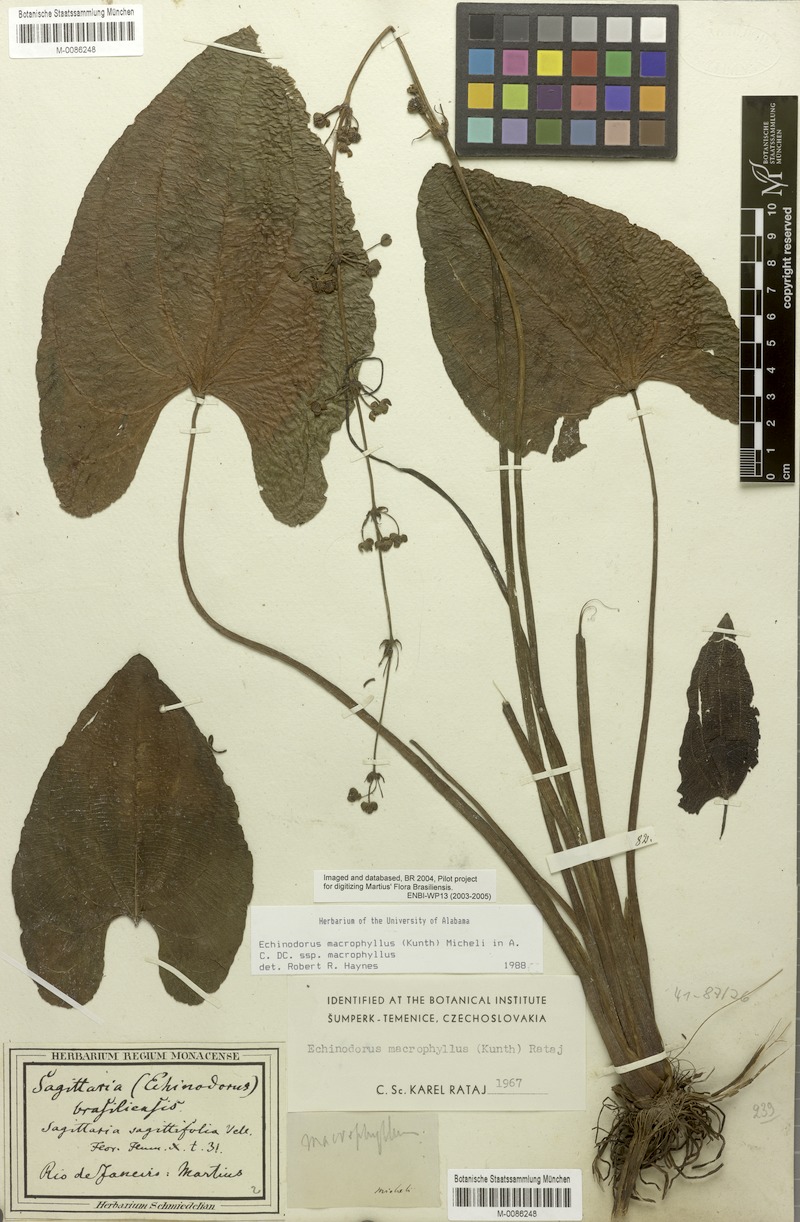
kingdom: Plantae
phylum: Tracheophyta
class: Liliopsida
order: Alismatales
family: Alismataceae
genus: Aquarius
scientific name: Aquarius floribundus
